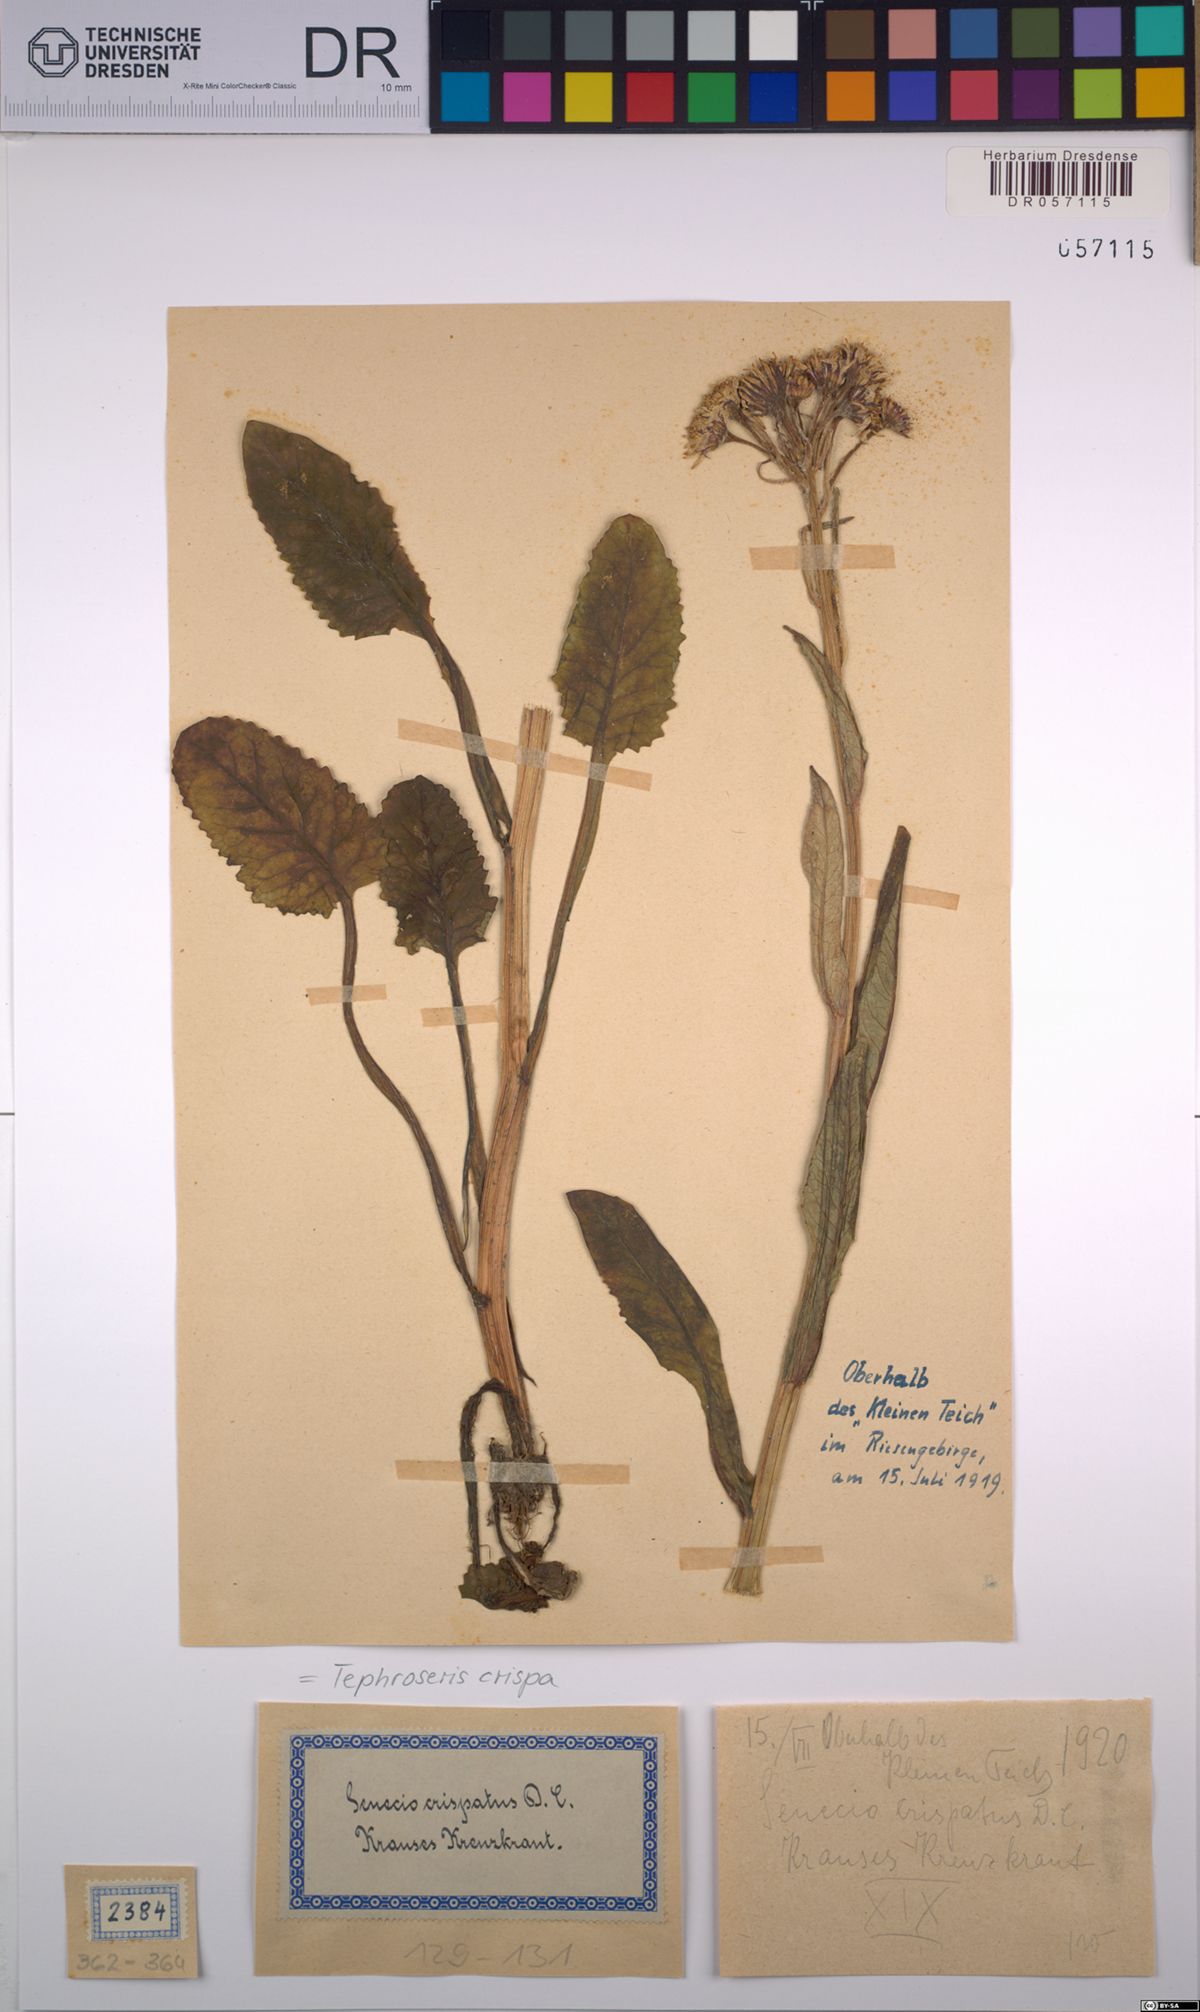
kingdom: Plantae
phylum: Tracheophyta
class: Magnoliopsida
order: Asterales
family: Asteraceae
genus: Tephroseris
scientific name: Tephroseris crispa
